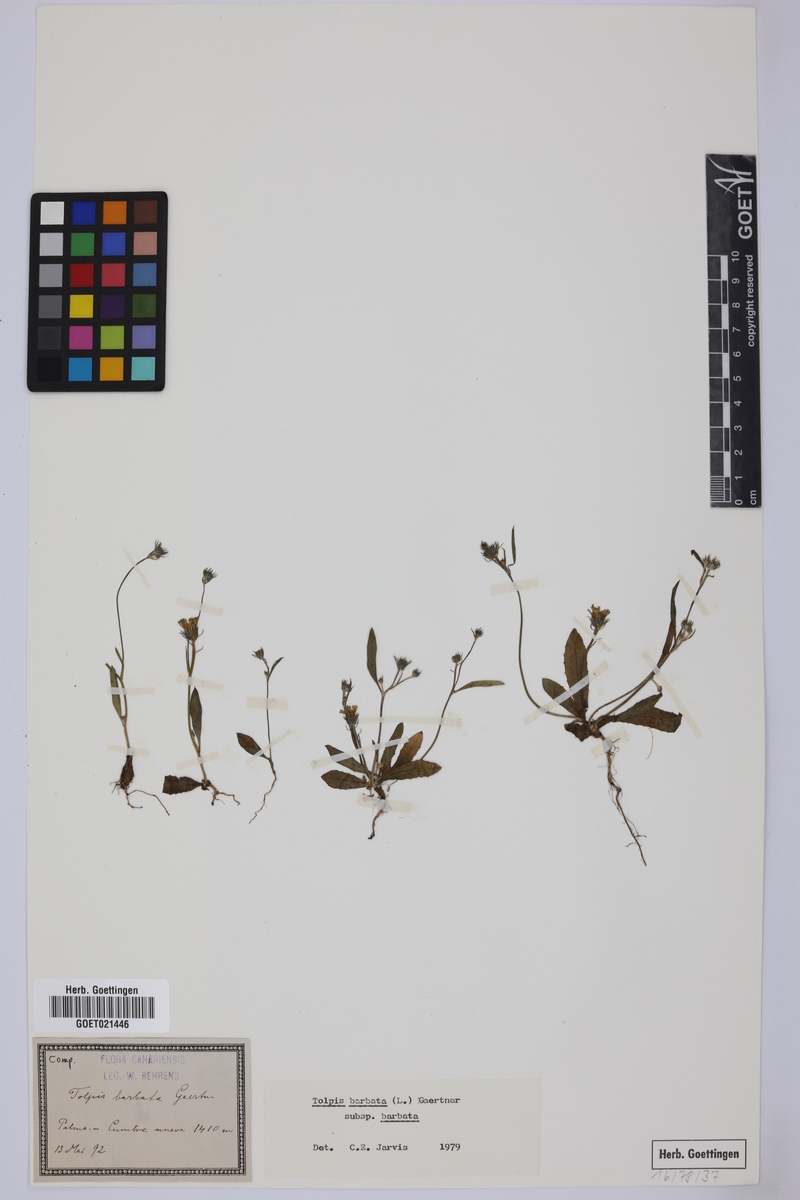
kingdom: Plantae
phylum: Tracheophyta
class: Magnoliopsida
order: Asterales
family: Asteraceae
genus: Tolpis
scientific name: Tolpis barbata
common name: Yellow hawkweed
